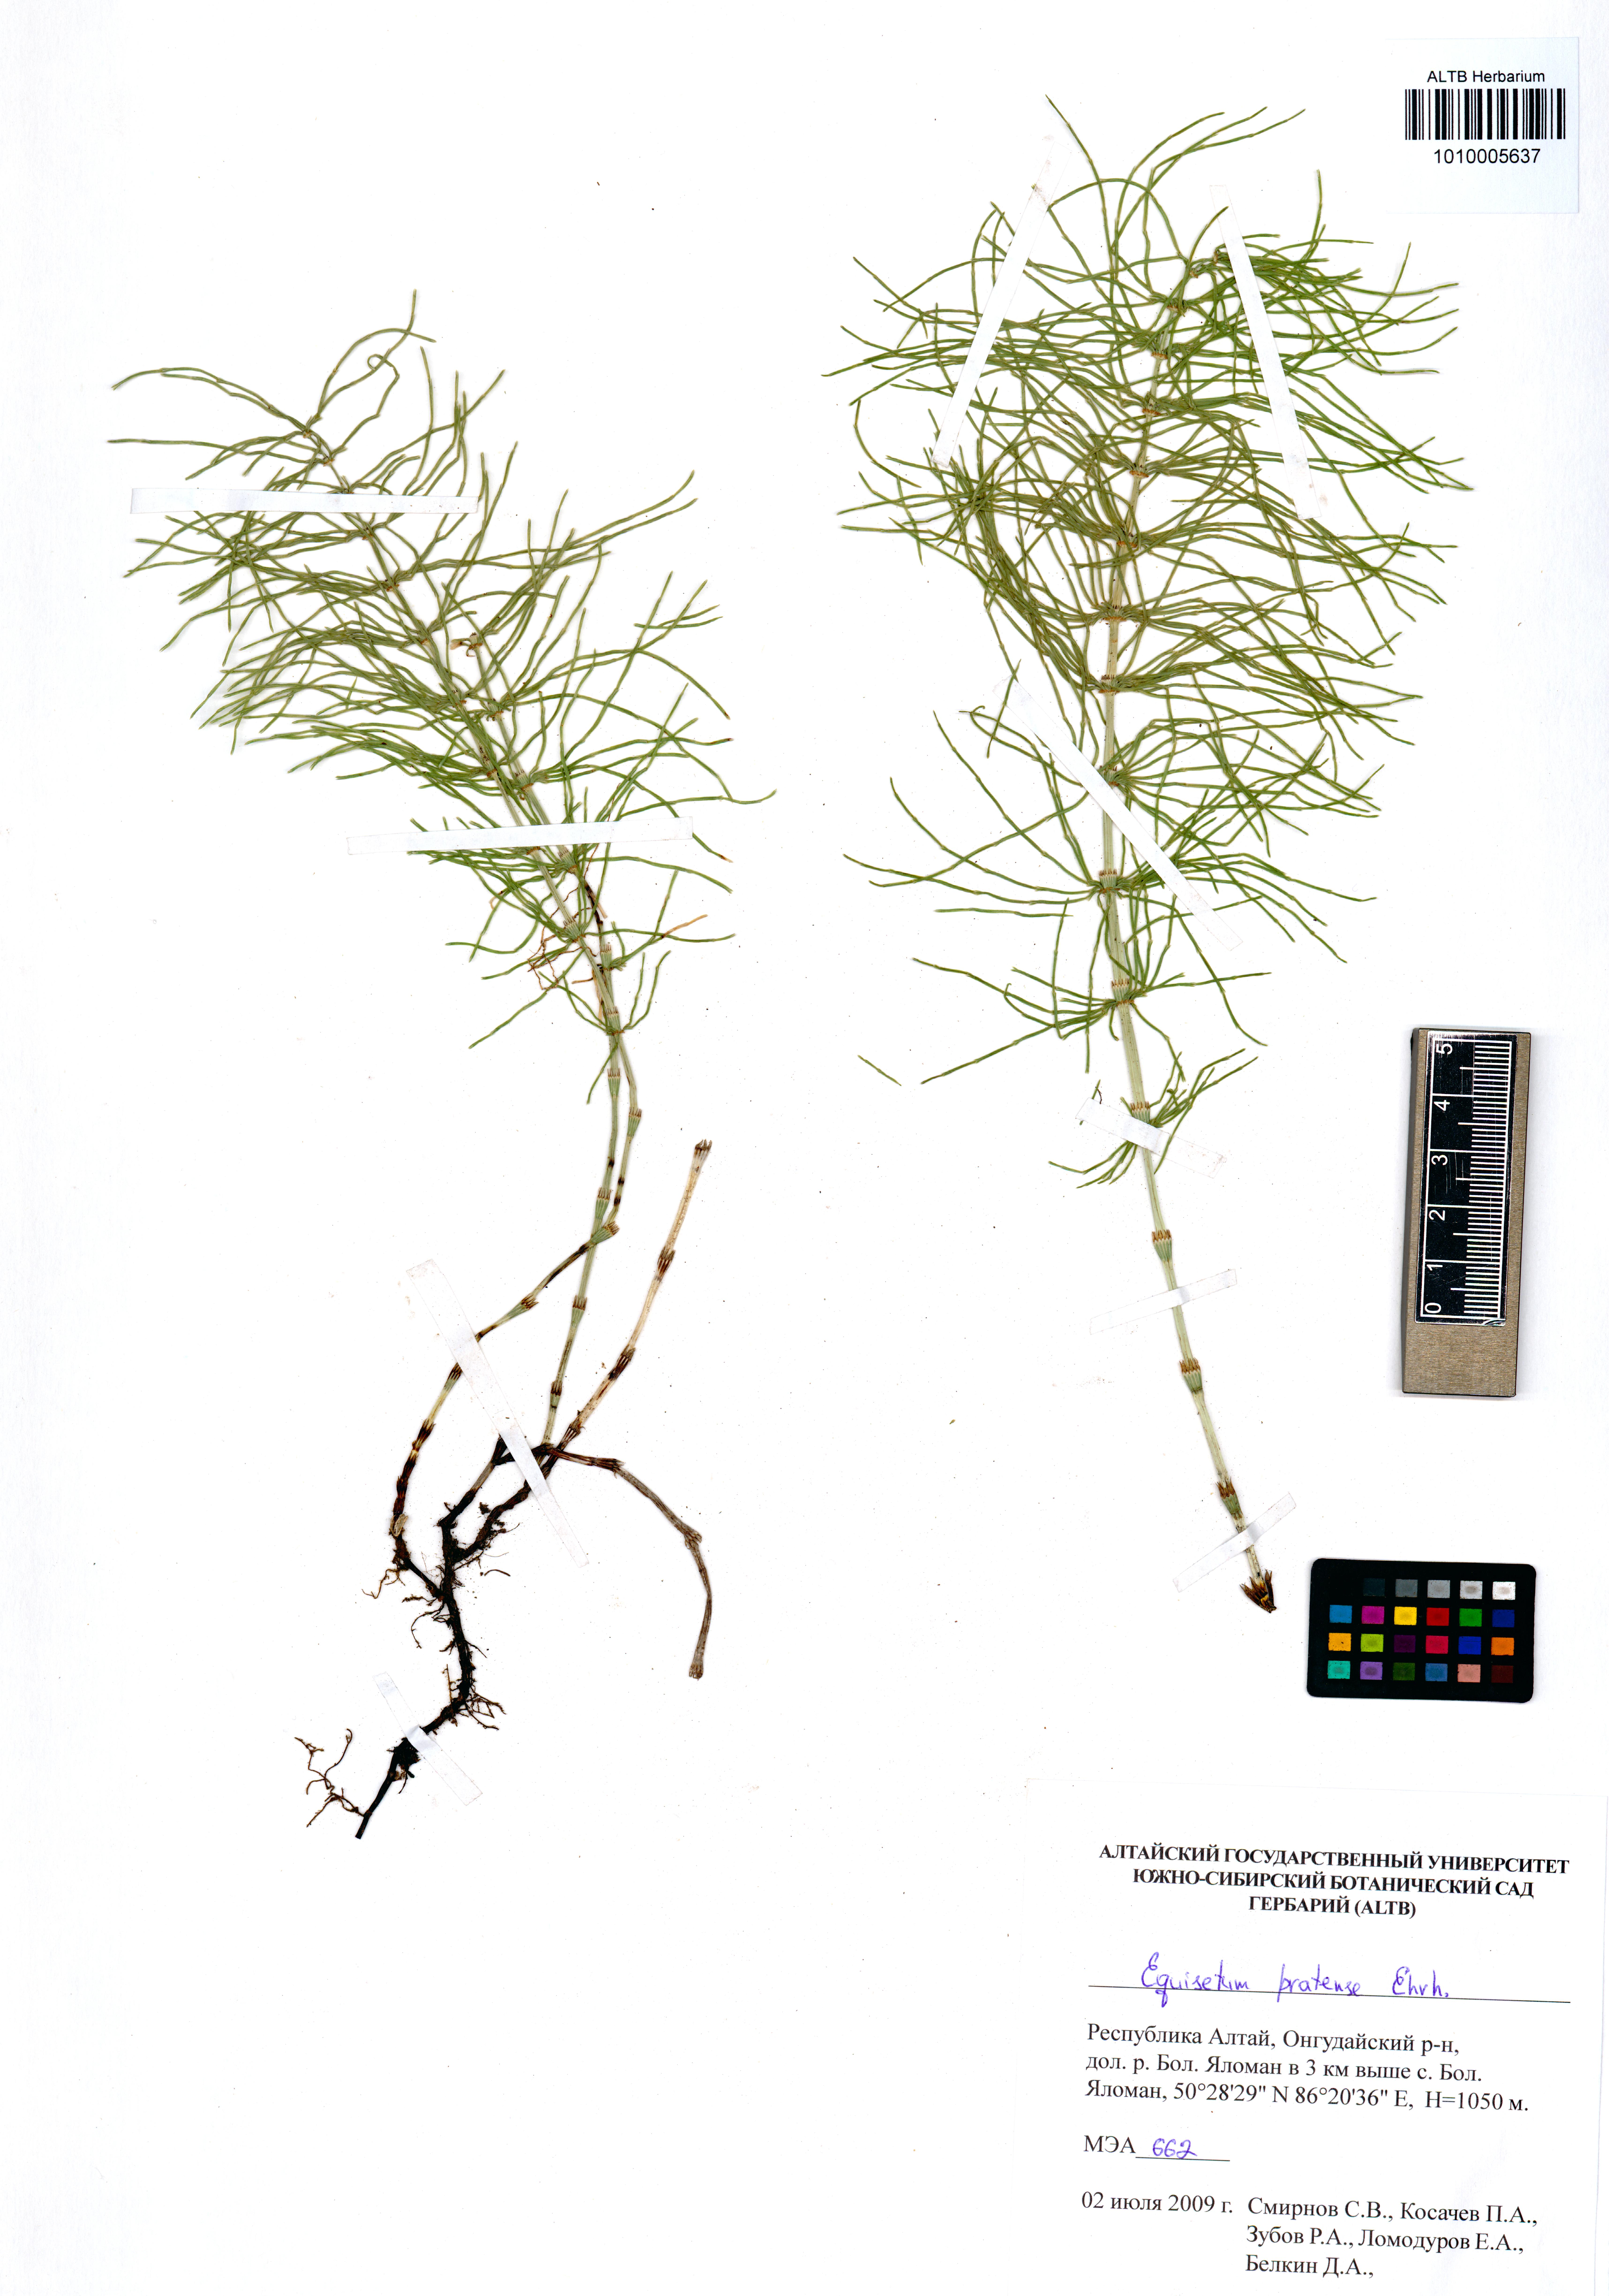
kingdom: Plantae
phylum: Tracheophyta
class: Polypodiopsida
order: Equisetales
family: Equisetaceae
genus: Equisetum
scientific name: Equisetum pratense
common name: Meadow horsetail
